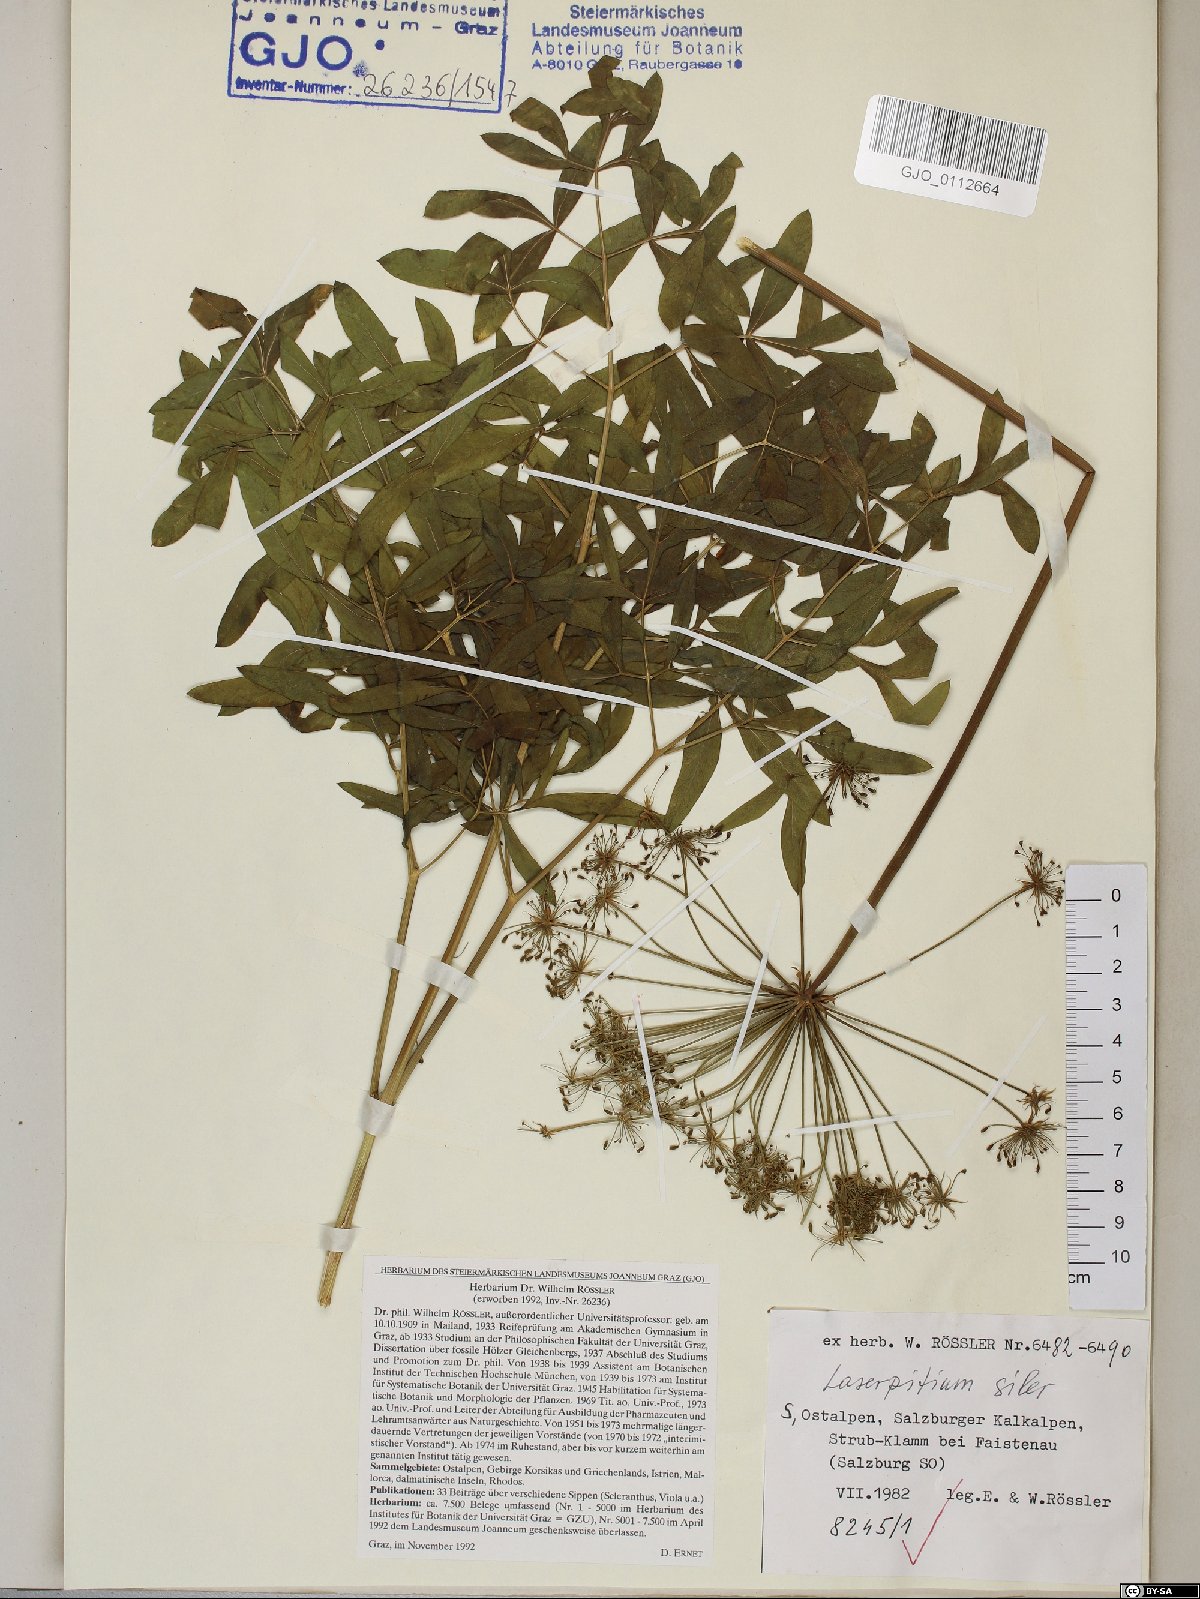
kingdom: Plantae
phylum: Tracheophyta
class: Magnoliopsida
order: Apiales
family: Apiaceae
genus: Siler
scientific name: Siler montanum
